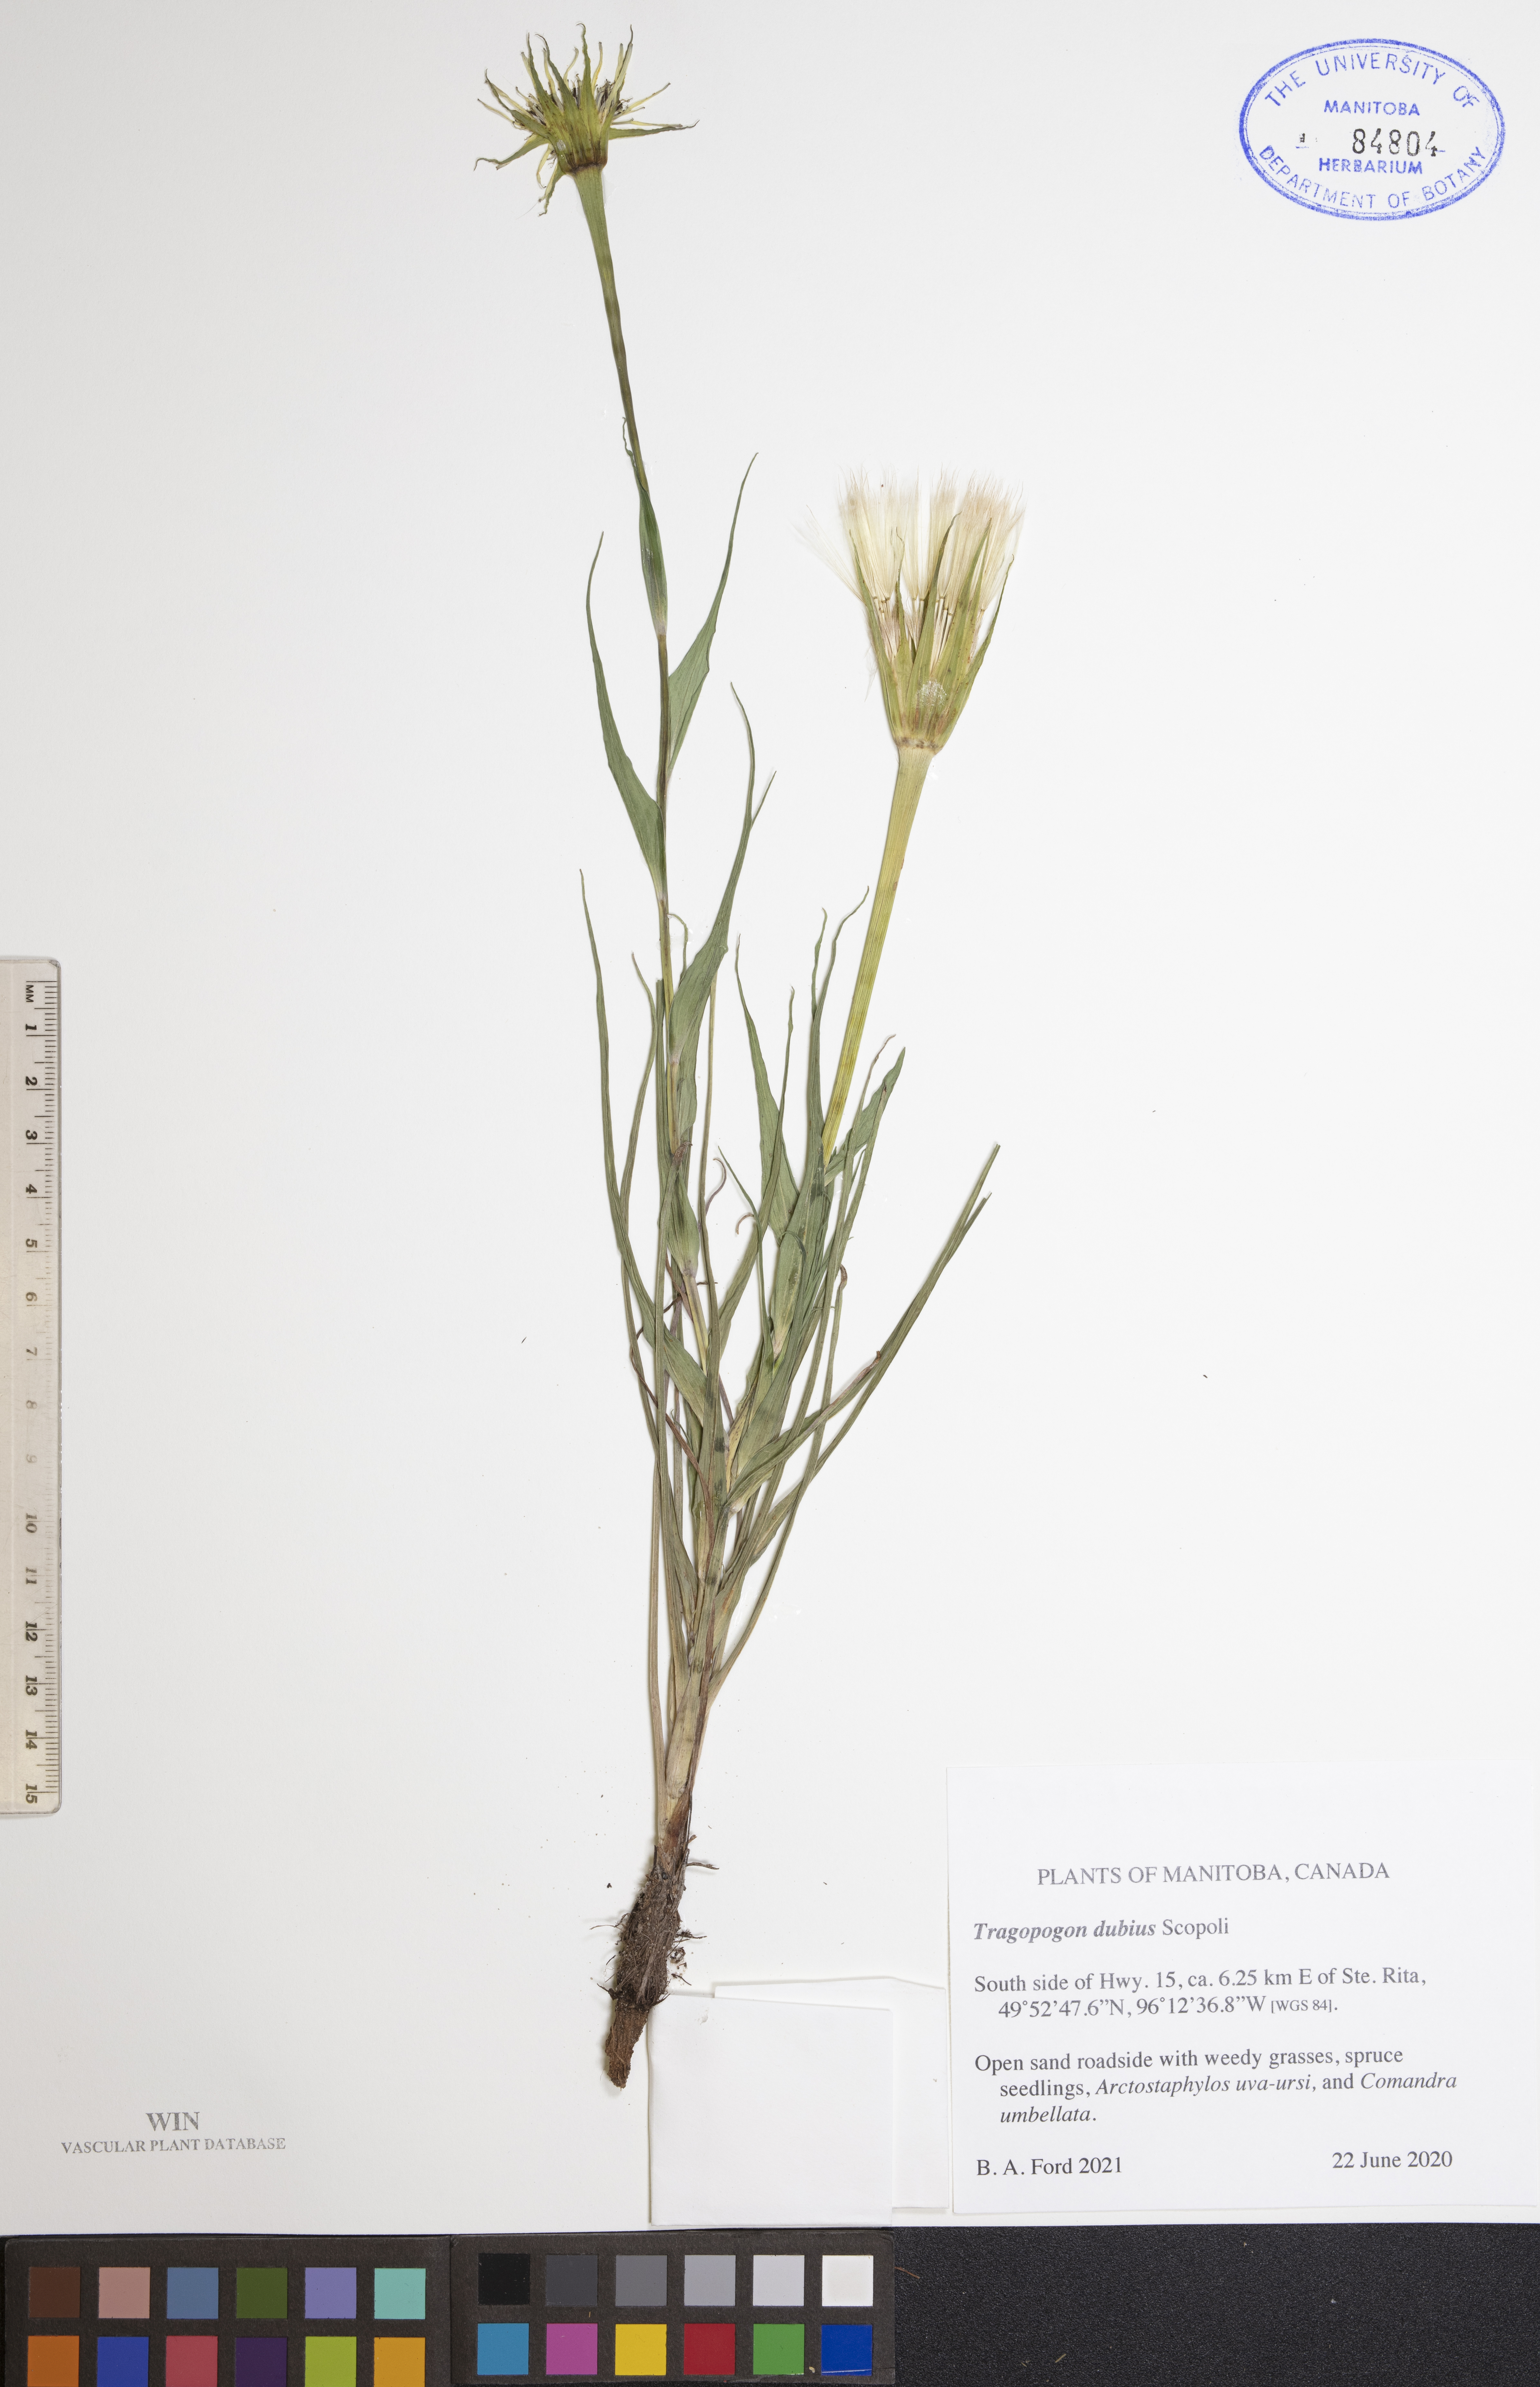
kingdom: Plantae
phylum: Tracheophyta
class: Magnoliopsida
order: Asterales
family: Asteraceae
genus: Tragopogon
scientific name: Tragopogon dubius
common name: Yellow salsify
